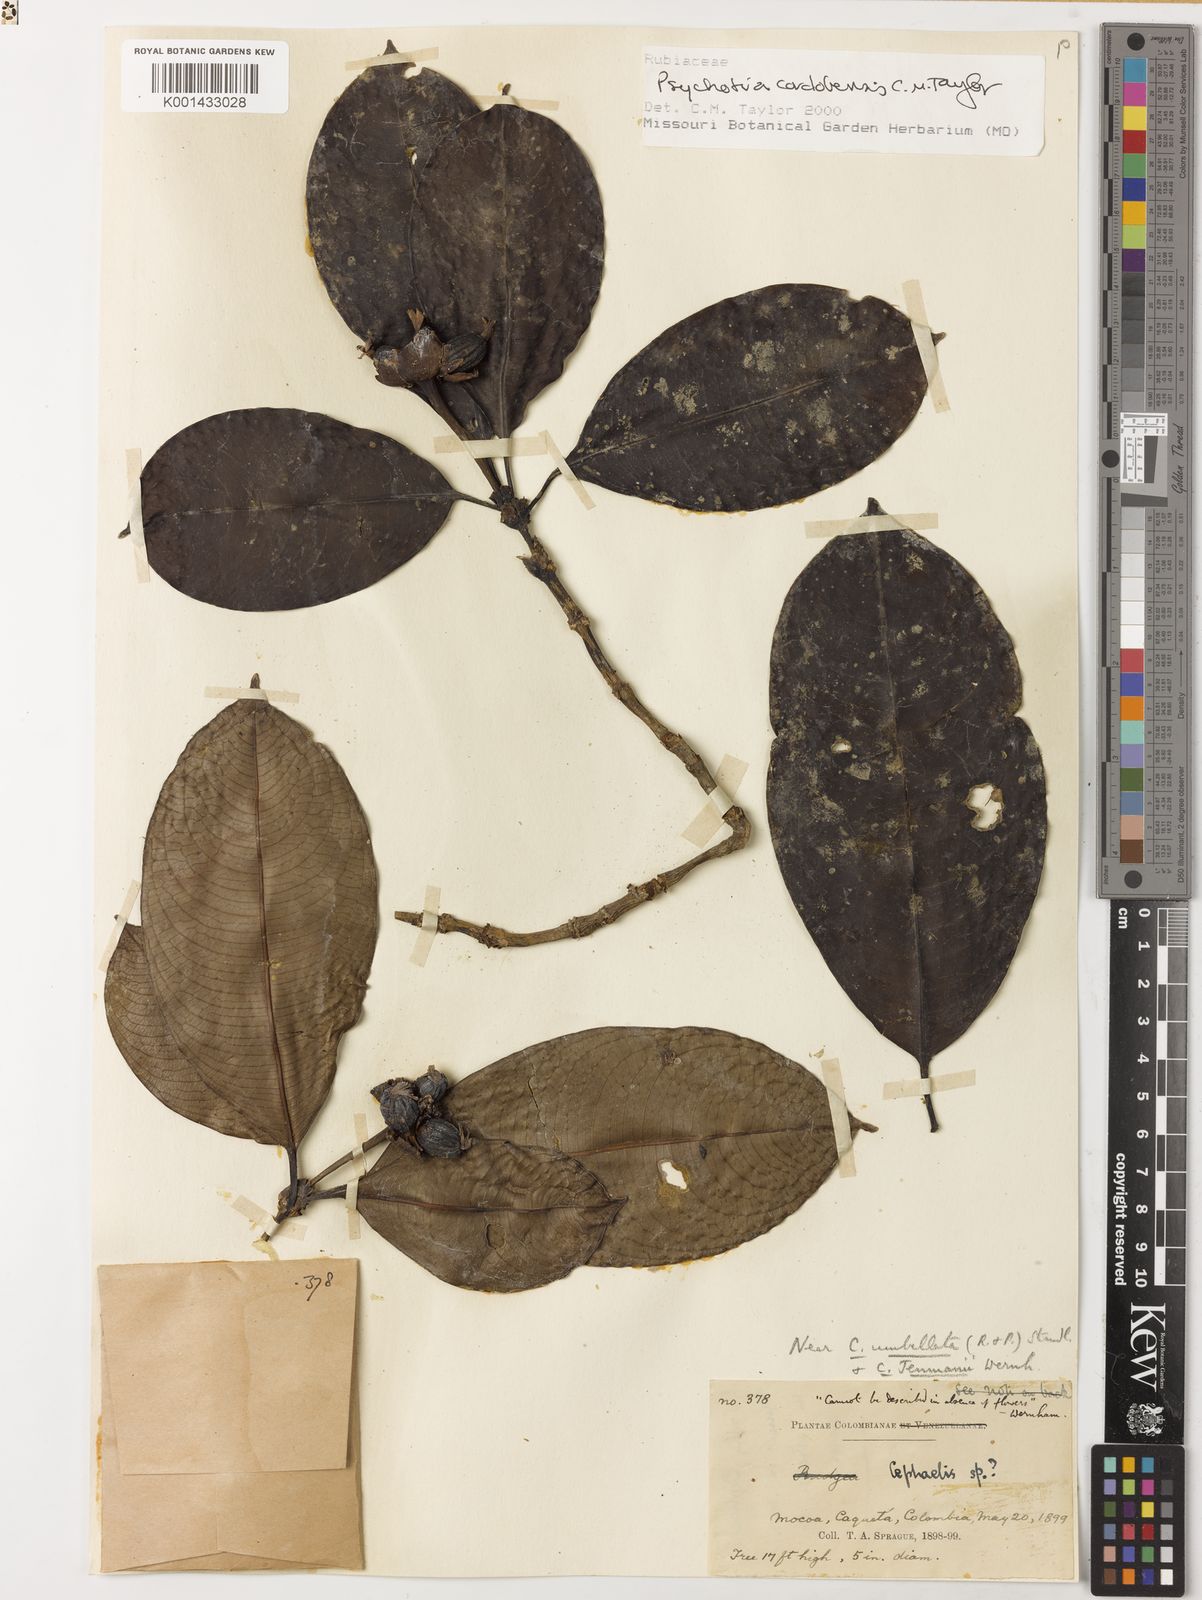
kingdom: Plantae
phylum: Tracheophyta
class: Magnoliopsida
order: Gentianales
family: Rubiaceae
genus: Palicourea
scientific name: Palicourea crassifolia
